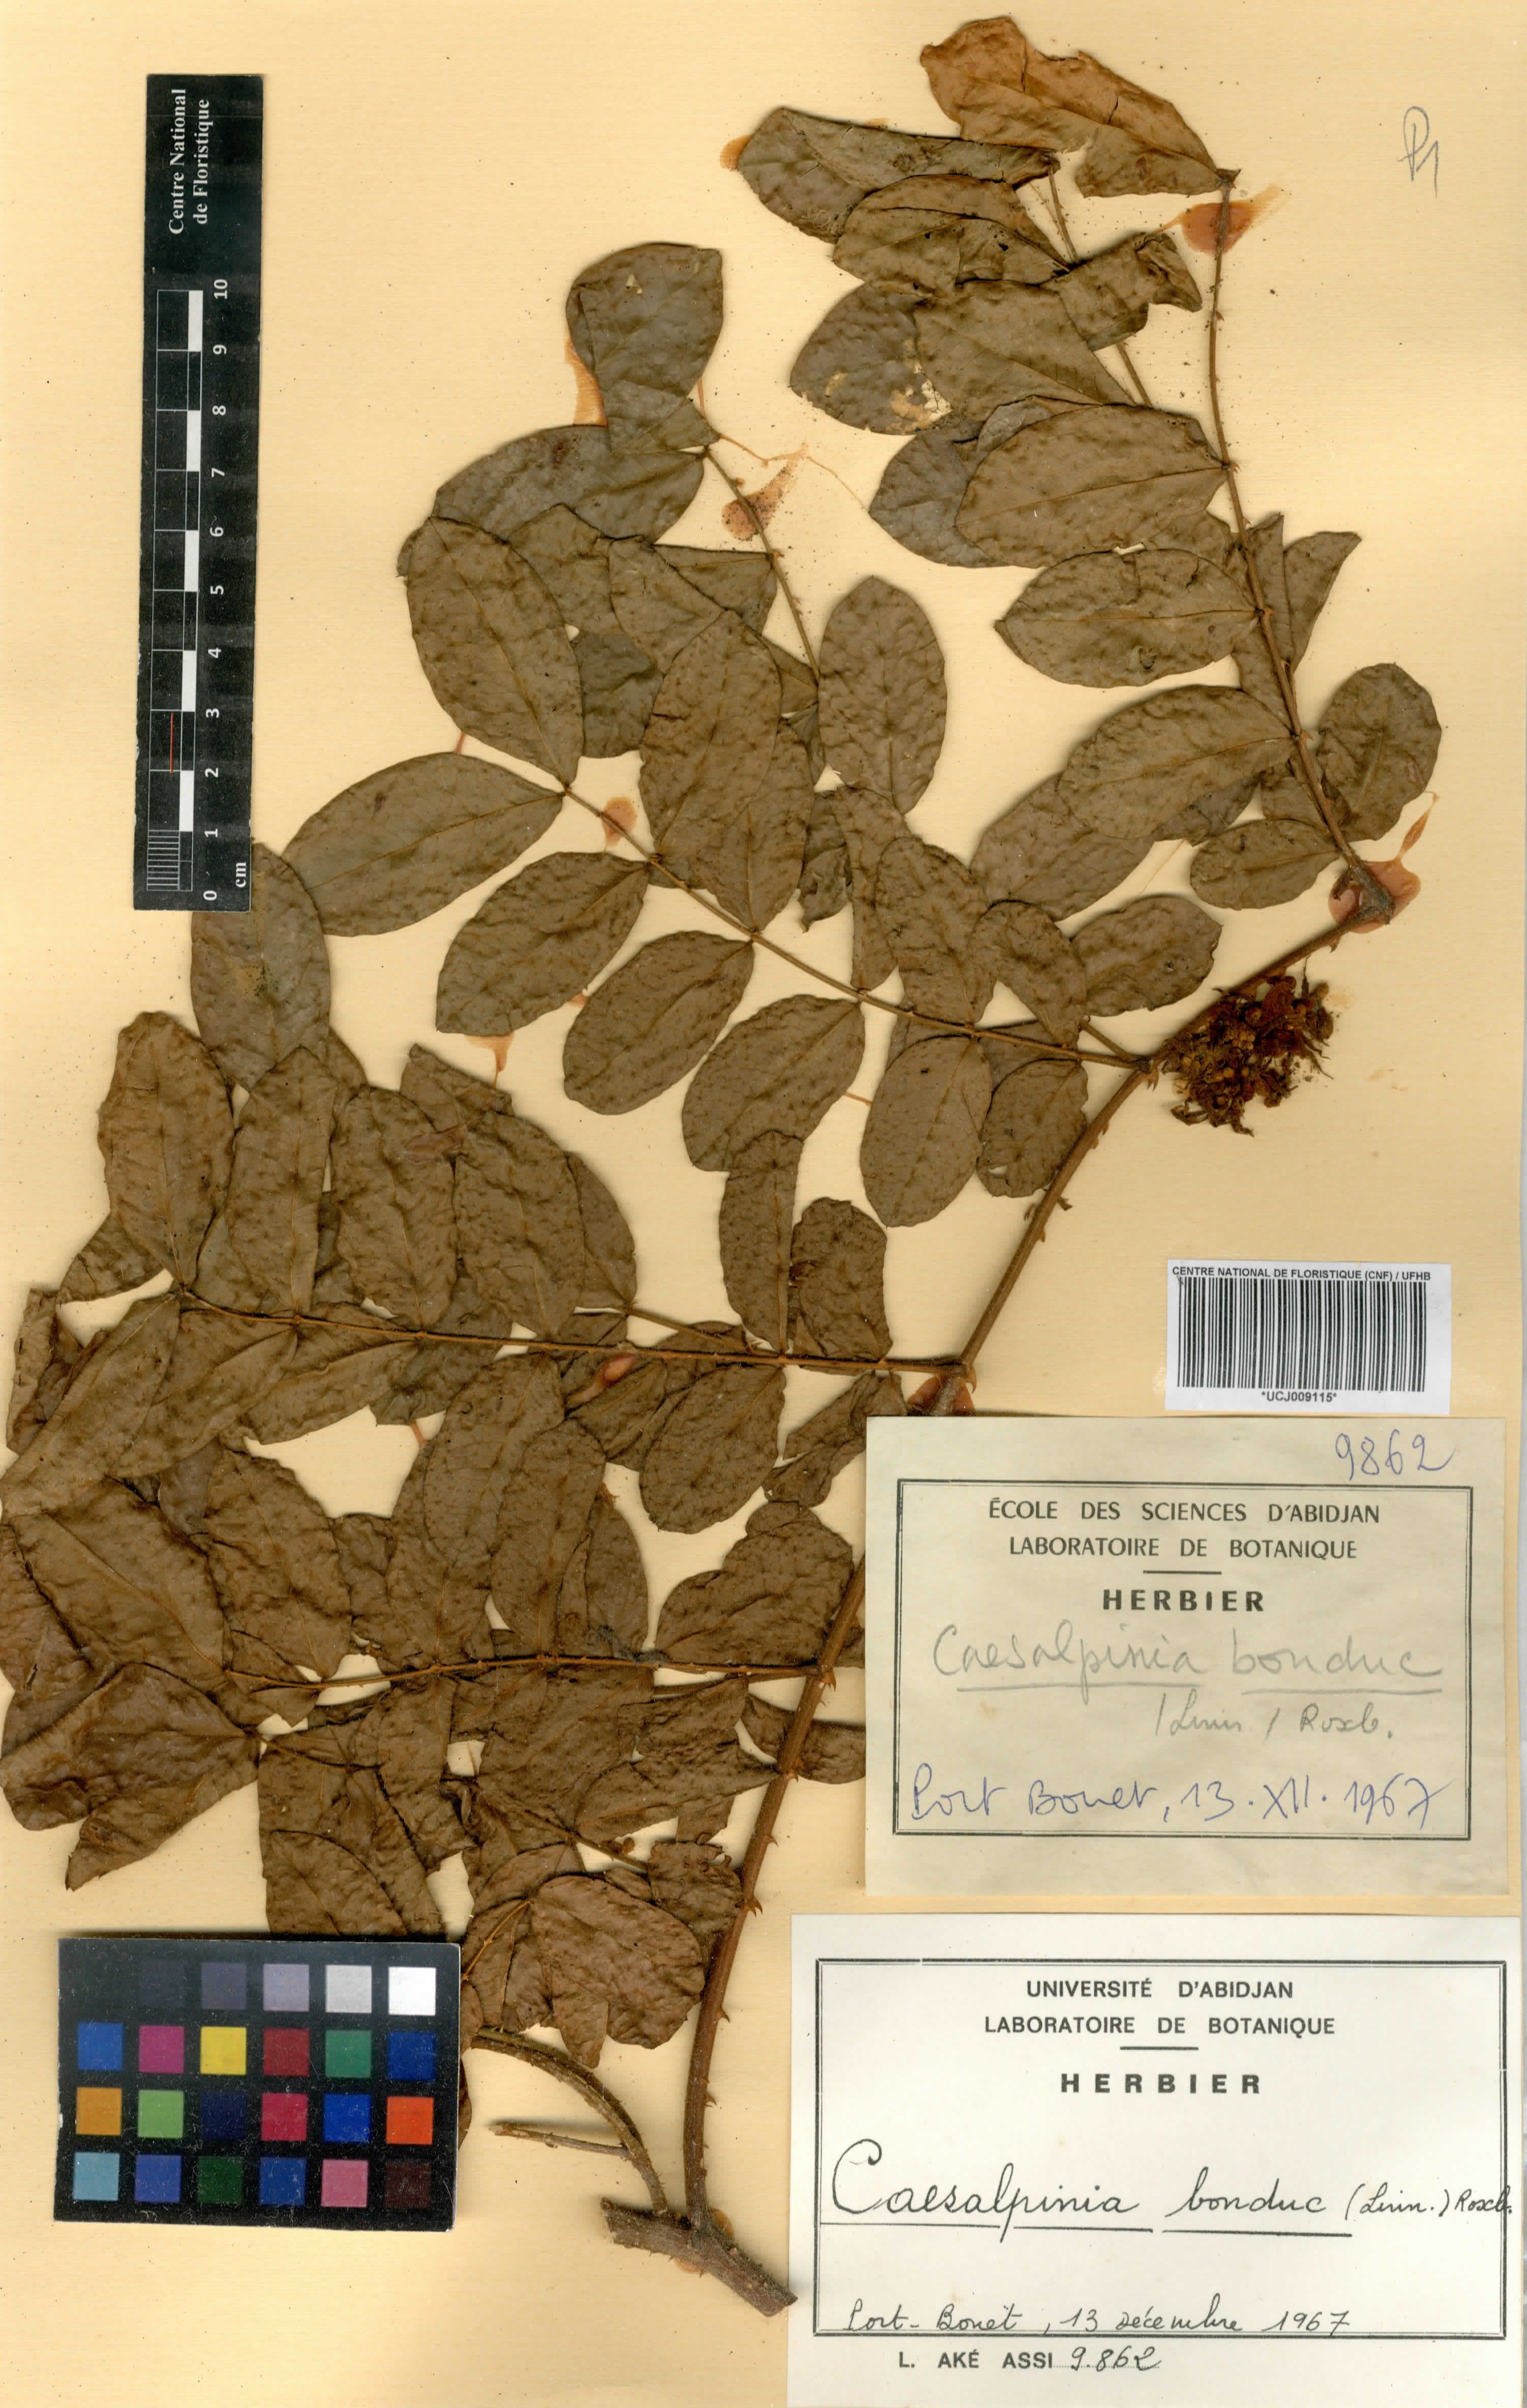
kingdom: Plantae
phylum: Tracheophyta
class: Magnoliopsida
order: Fabales
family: Fabaceae
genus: Guilandina
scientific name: Guilandina bonduc
